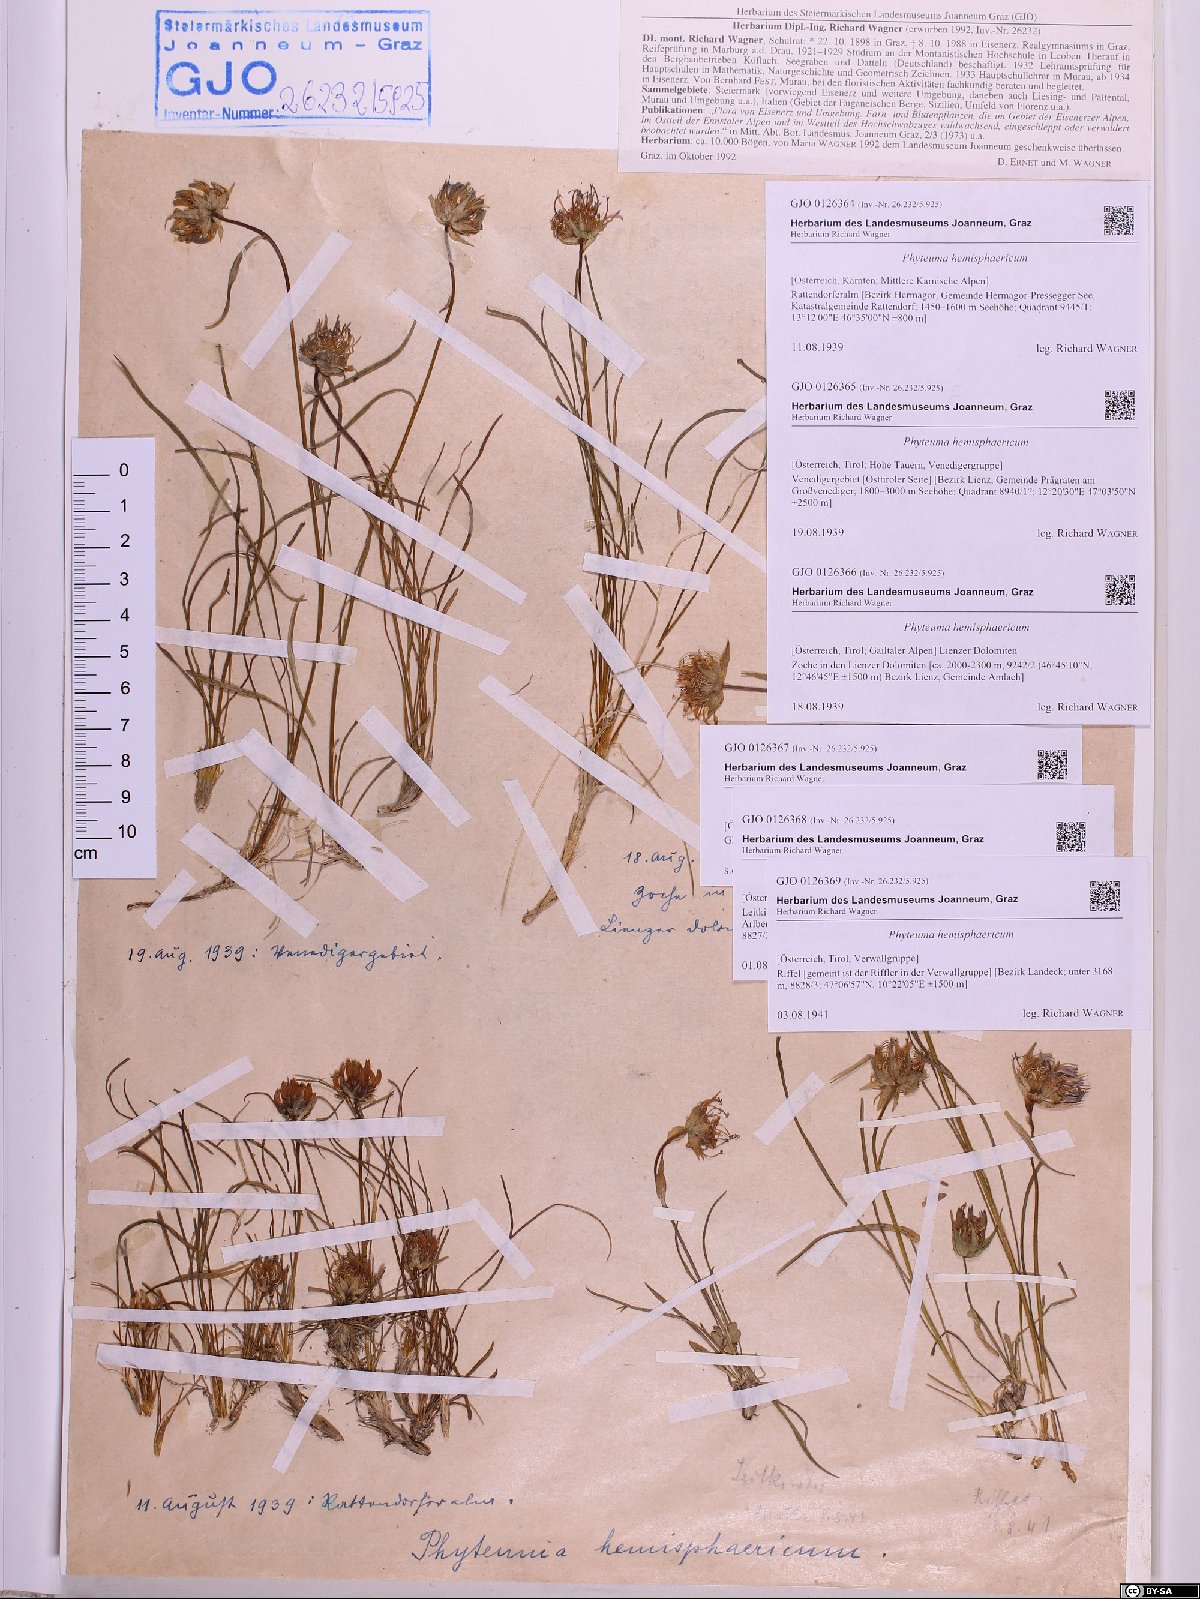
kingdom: Plantae
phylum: Tracheophyta
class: Magnoliopsida
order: Asterales
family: Campanulaceae
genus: Phyteuma
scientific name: Phyteuma hemisphaericum
